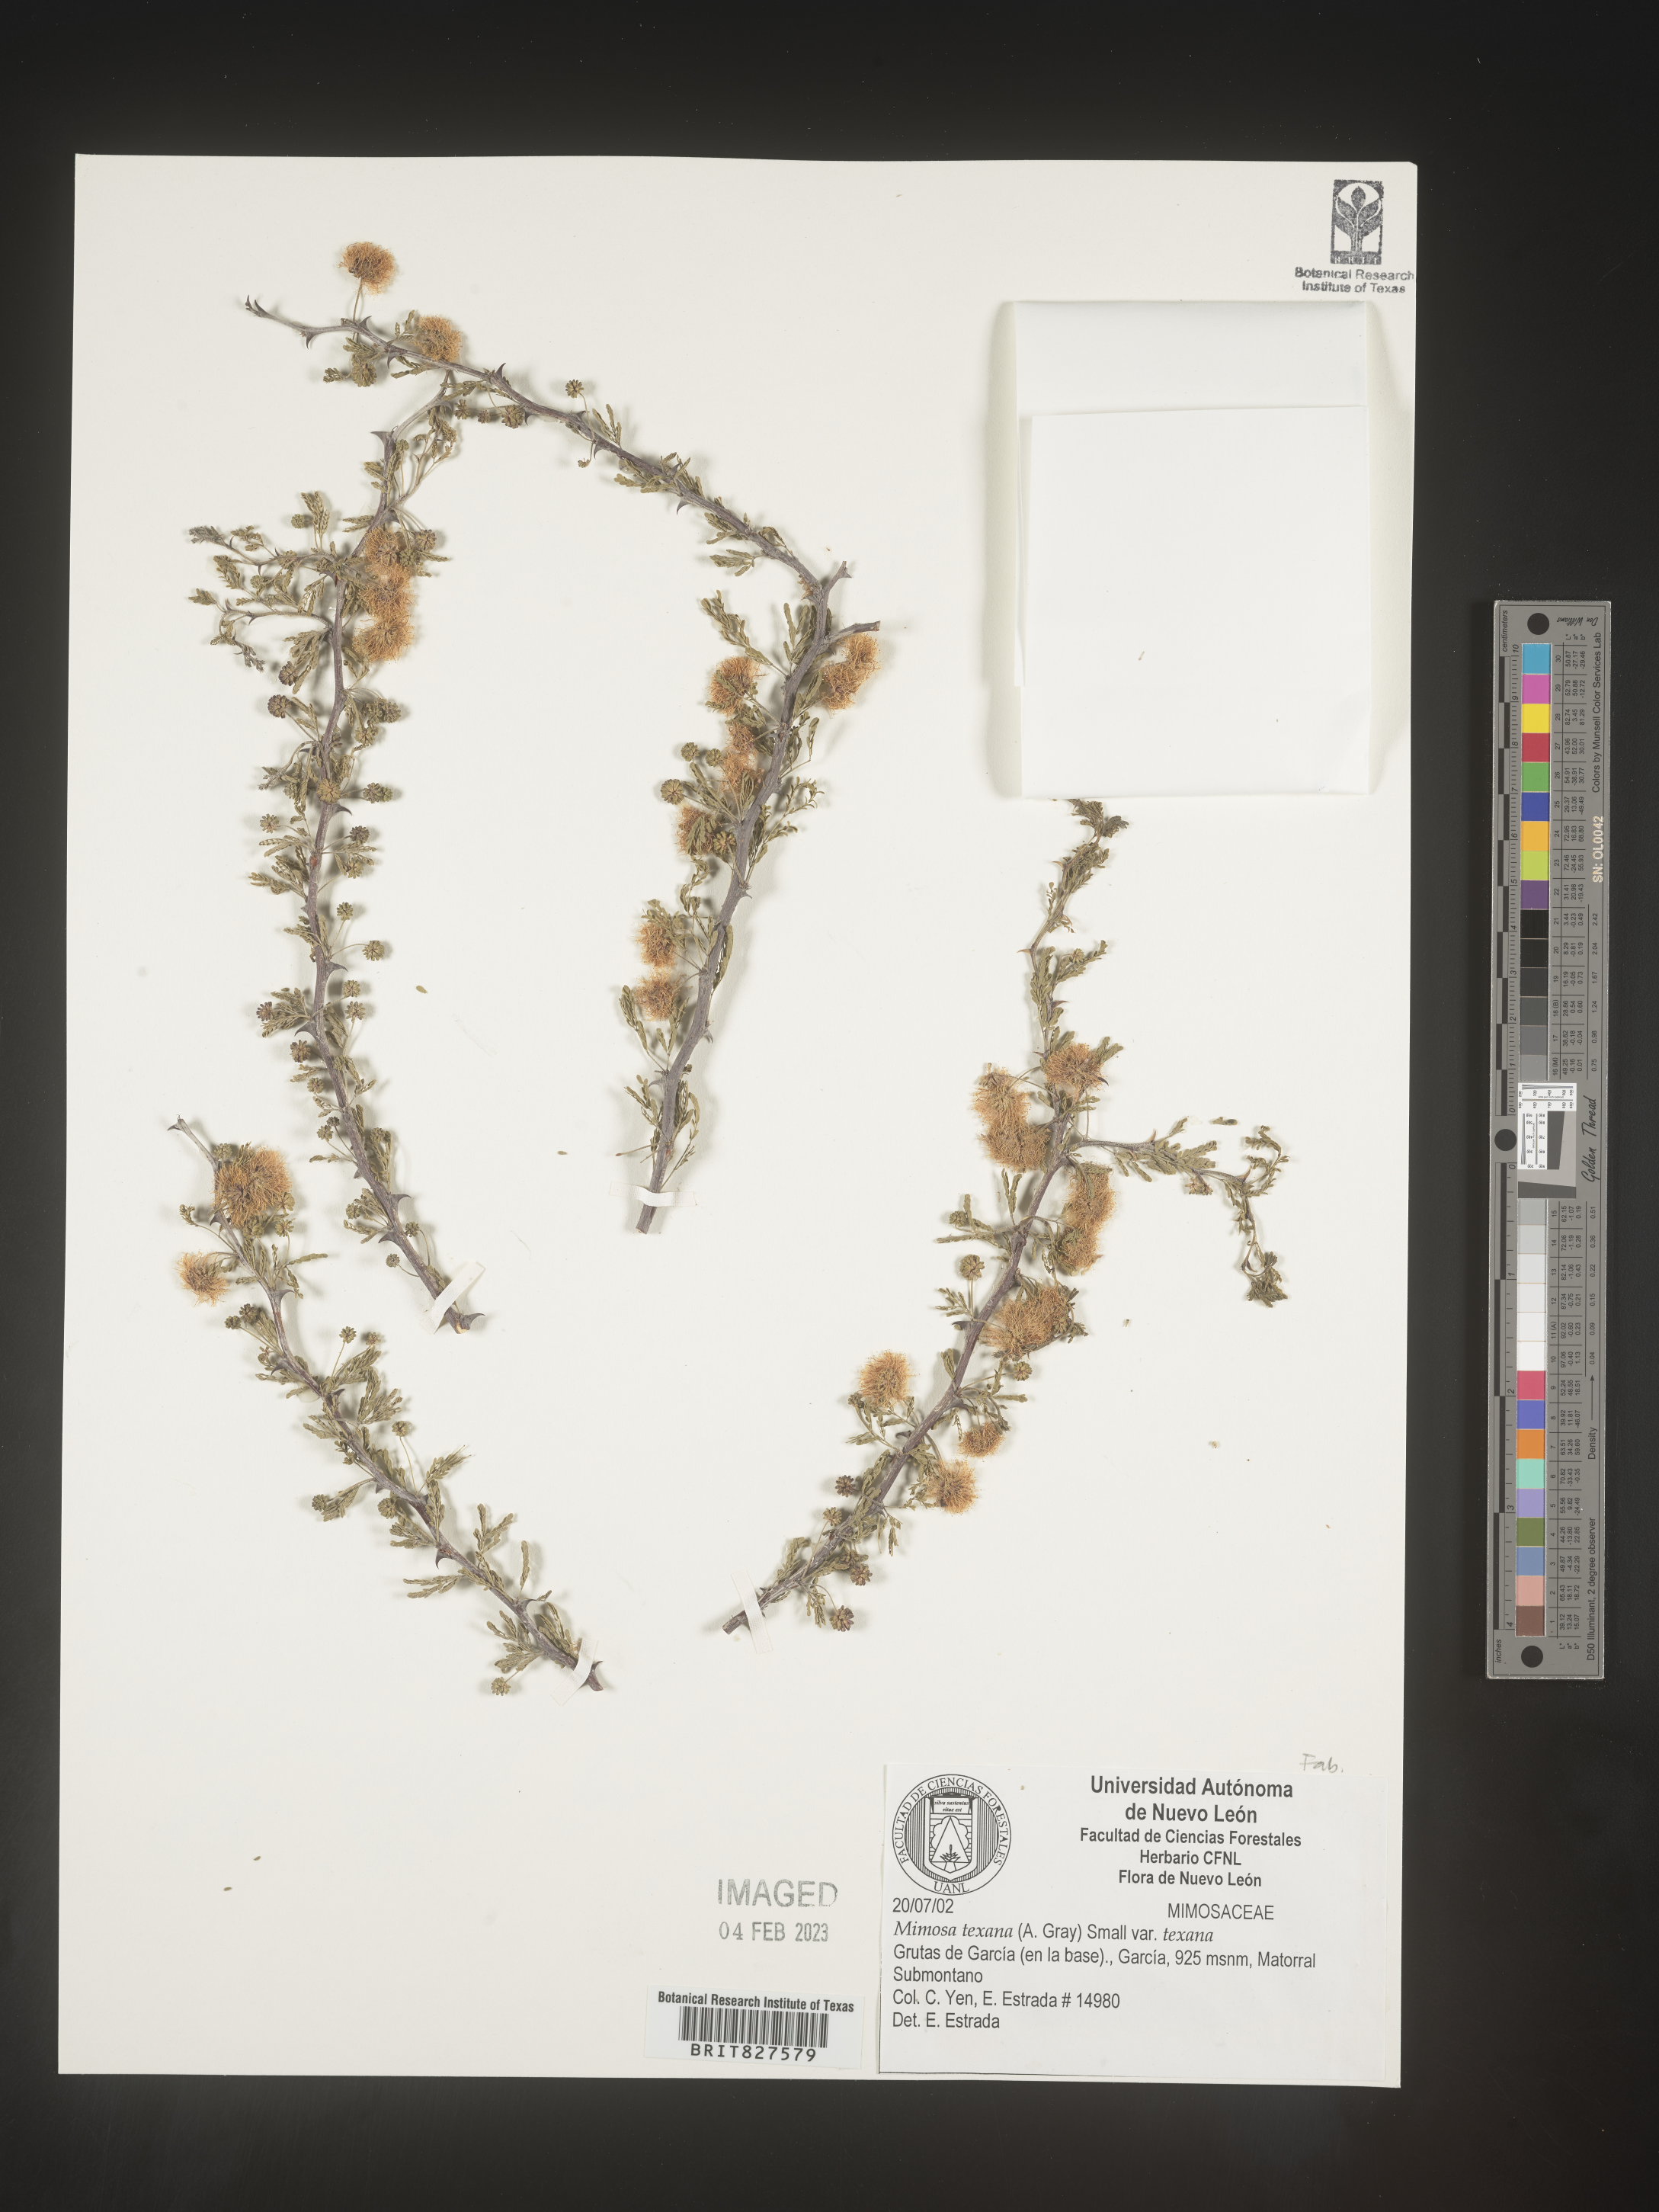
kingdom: Plantae
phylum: Tracheophyta
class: Magnoliopsida
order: Fabales
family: Fabaceae
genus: Mimosa
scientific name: Mimosa
